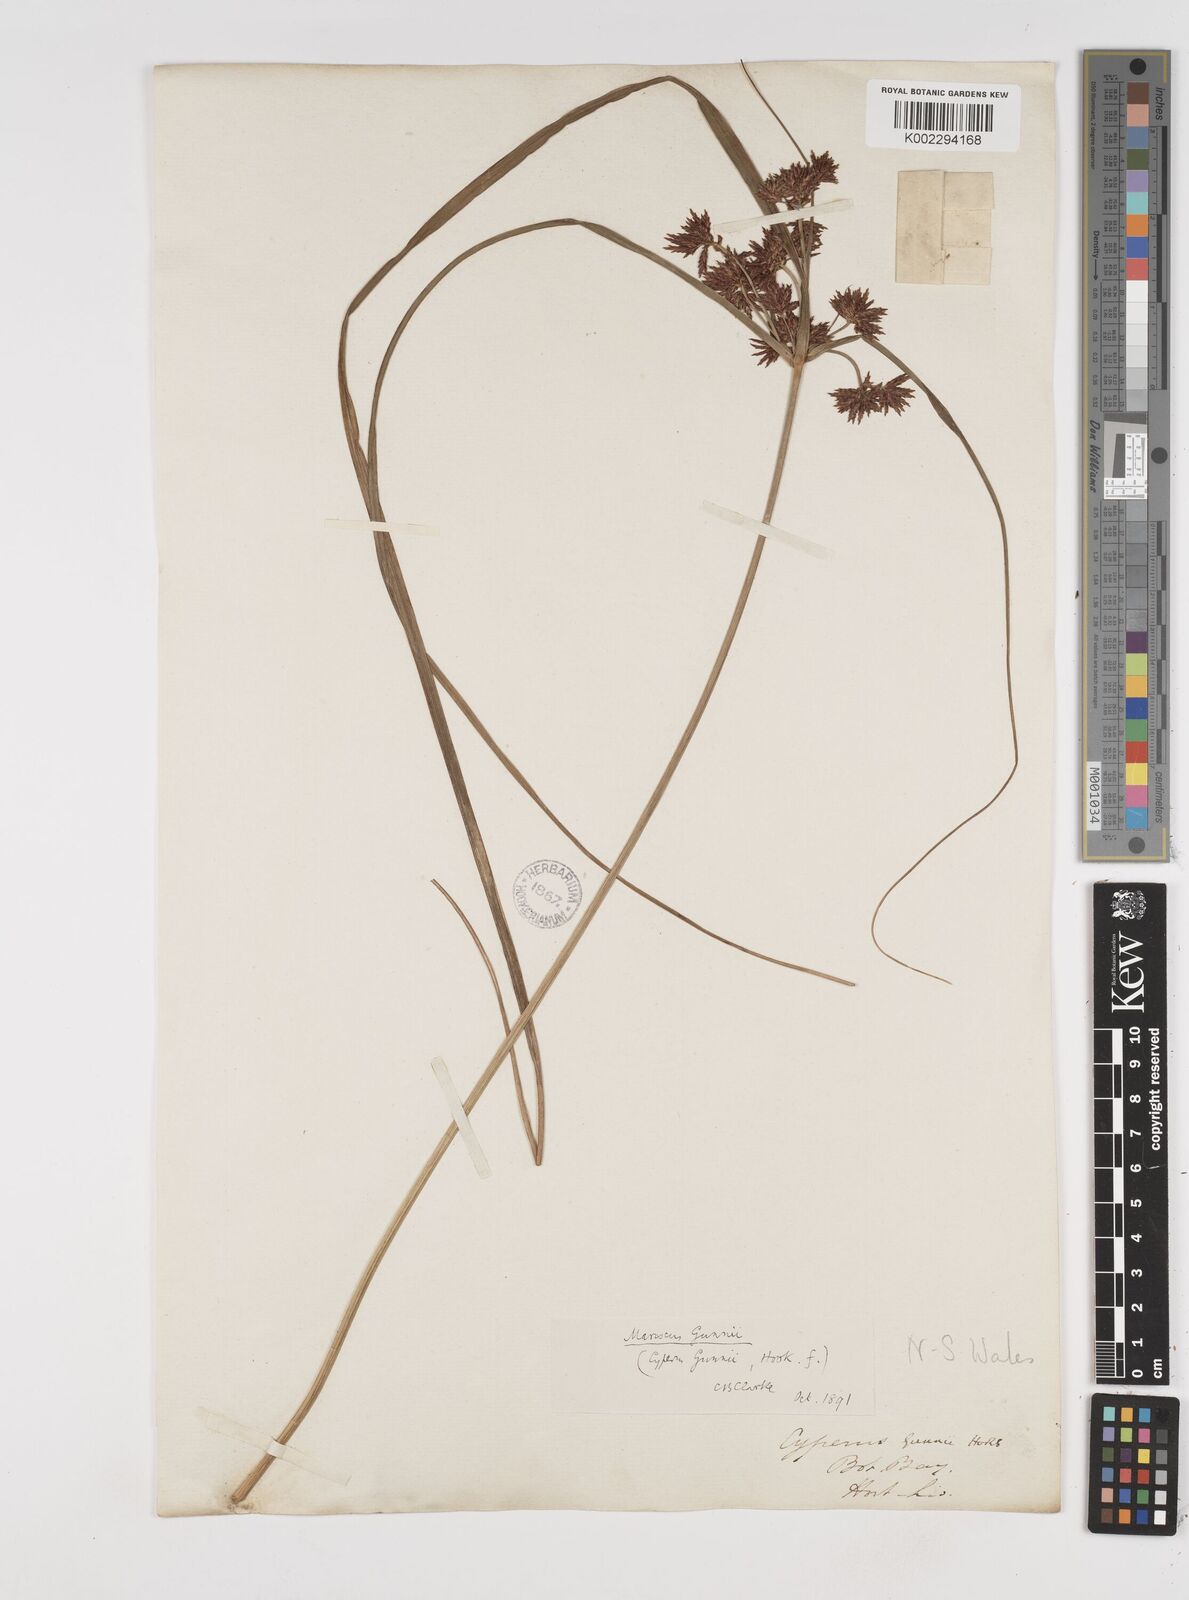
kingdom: Plantae
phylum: Tracheophyta
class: Liliopsida
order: Poales
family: Cyperaceae
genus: Cyperus
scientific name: Cyperus gunnii
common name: Flecked flat-sedge
